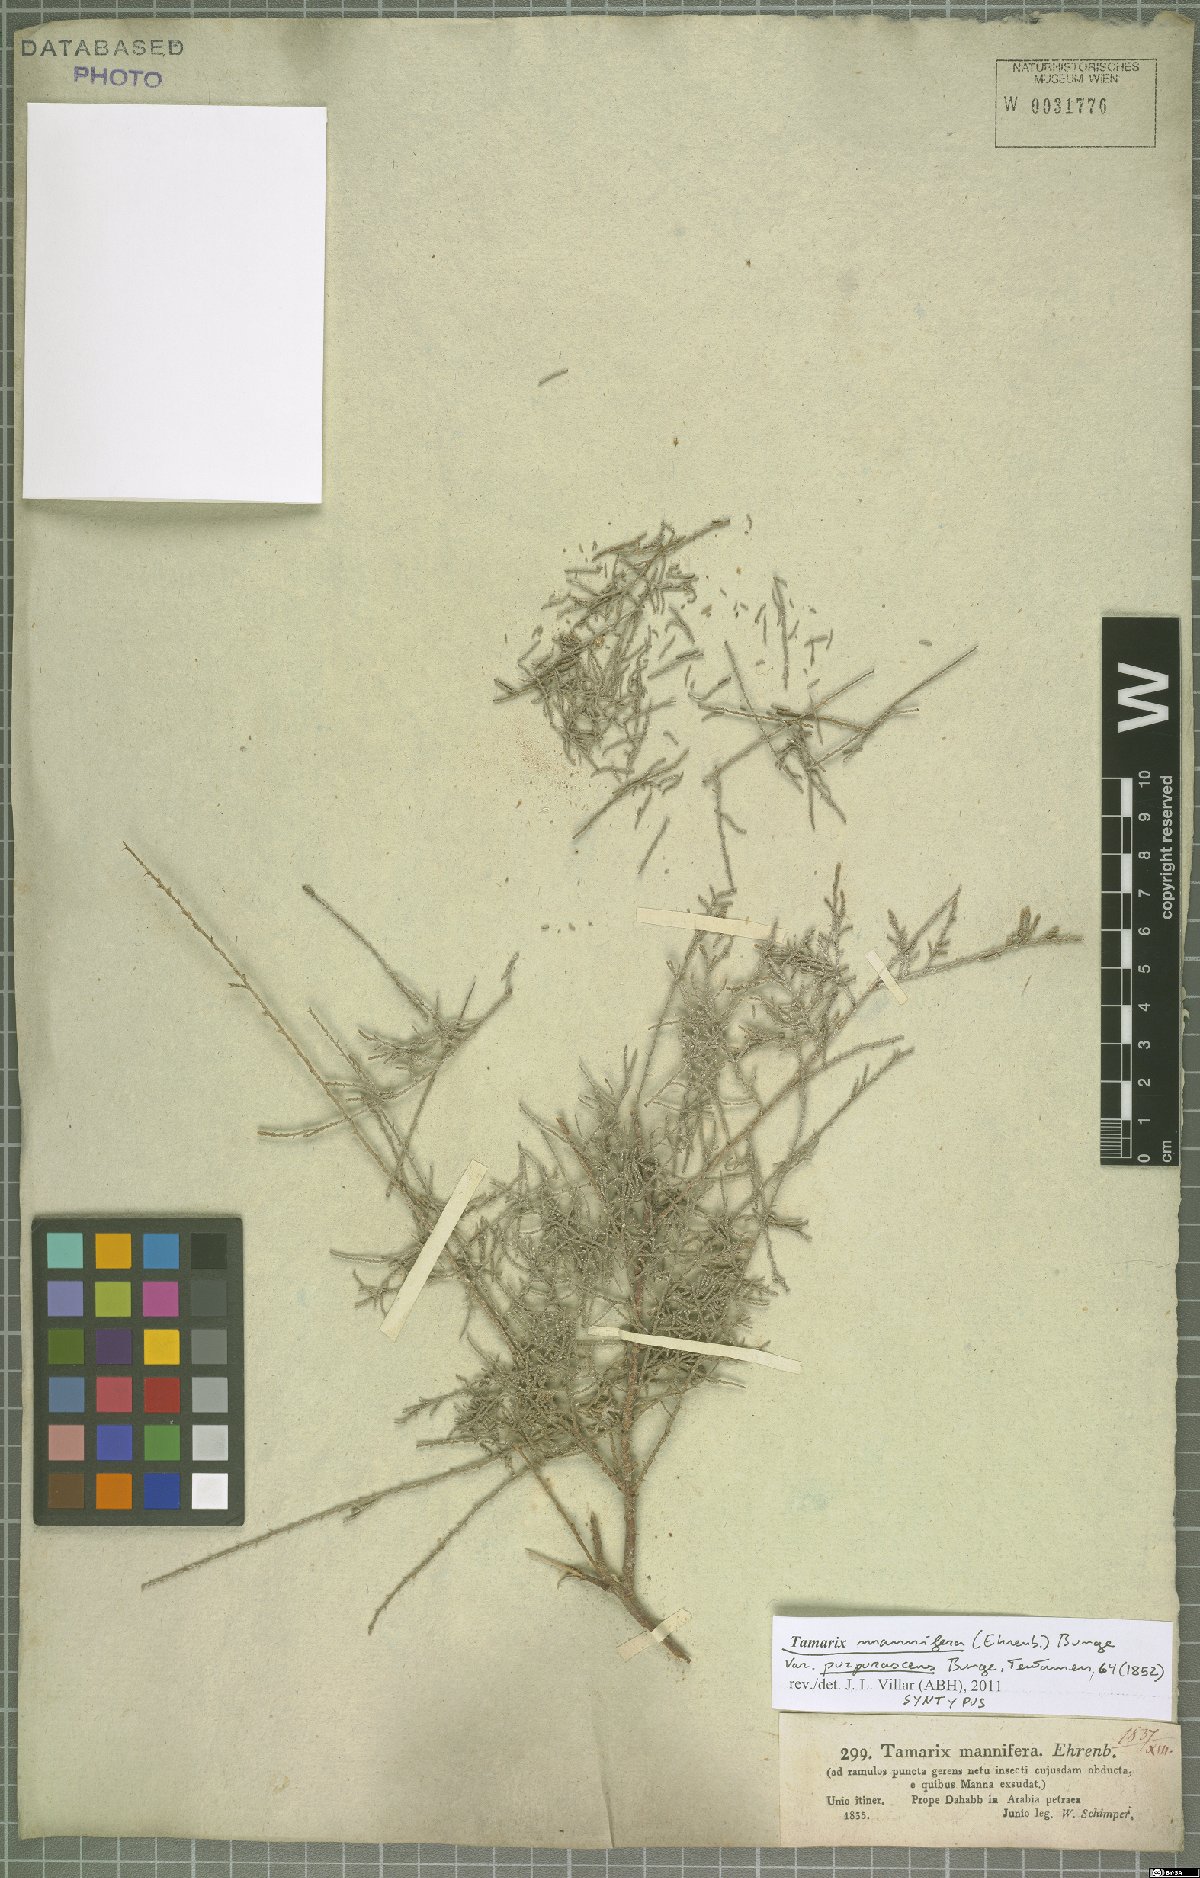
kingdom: Plantae
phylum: Tracheophyta
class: Magnoliopsida
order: Caryophyllales
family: Tamaricaceae
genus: Tamarix
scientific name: Tamarix senegalensis
